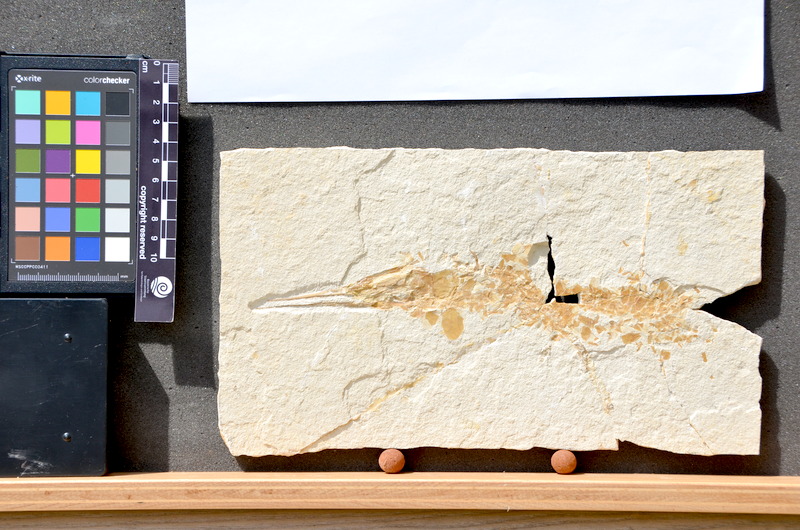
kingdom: Animalia
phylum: Chordata
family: Aspidorhynchidae
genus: Belonostomus
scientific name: Belonostomus
